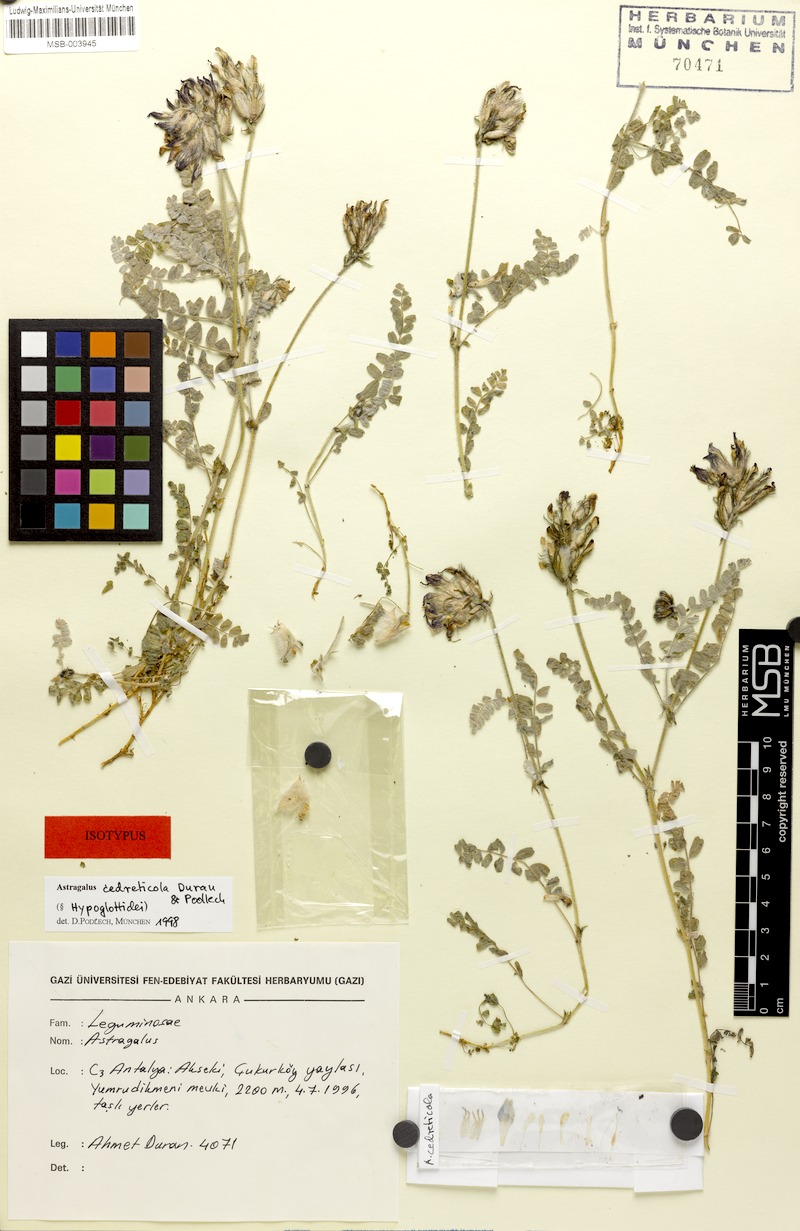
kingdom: Plantae
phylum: Tracheophyta
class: Magnoliopsida
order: Fabales
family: Fabaceae
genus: Astragalus
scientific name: Astragalus cedreticola
